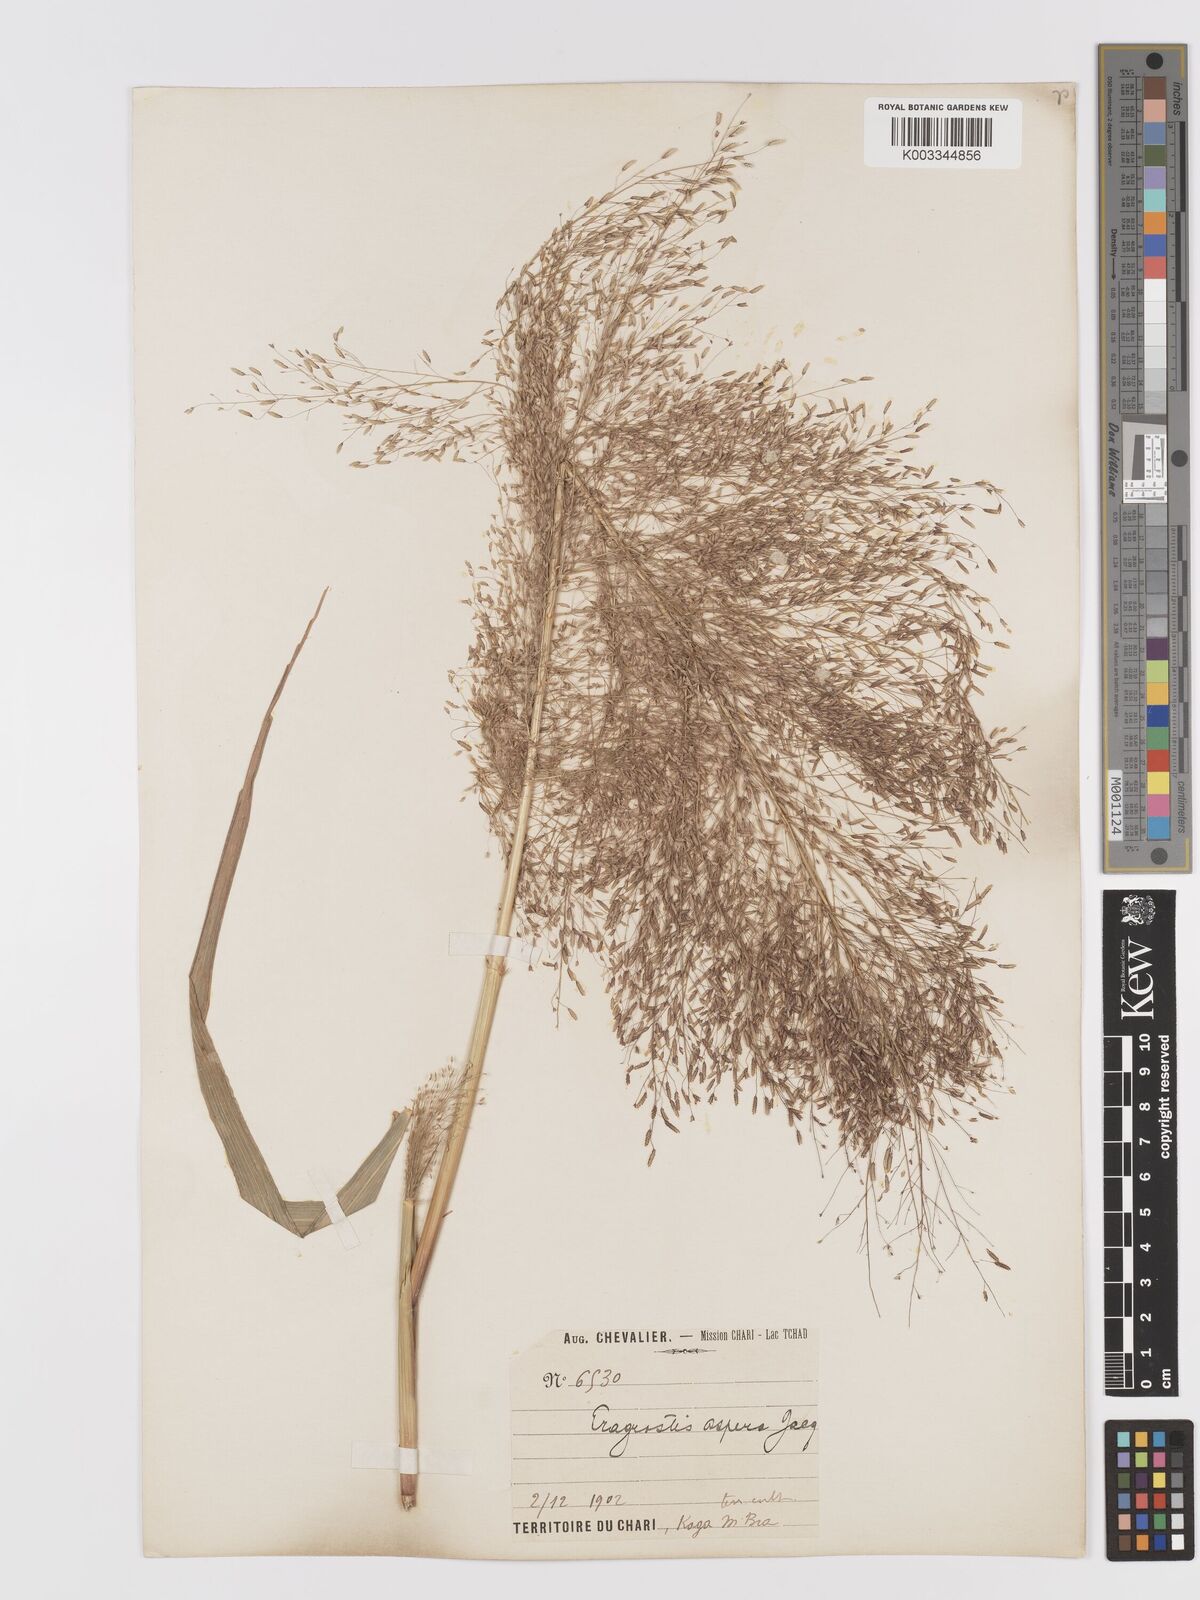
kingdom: Plantae
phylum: Tracheophyta
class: Liliopsida
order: Poales
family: Poaceae
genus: Eragrostis
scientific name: Eragrostis aspera
